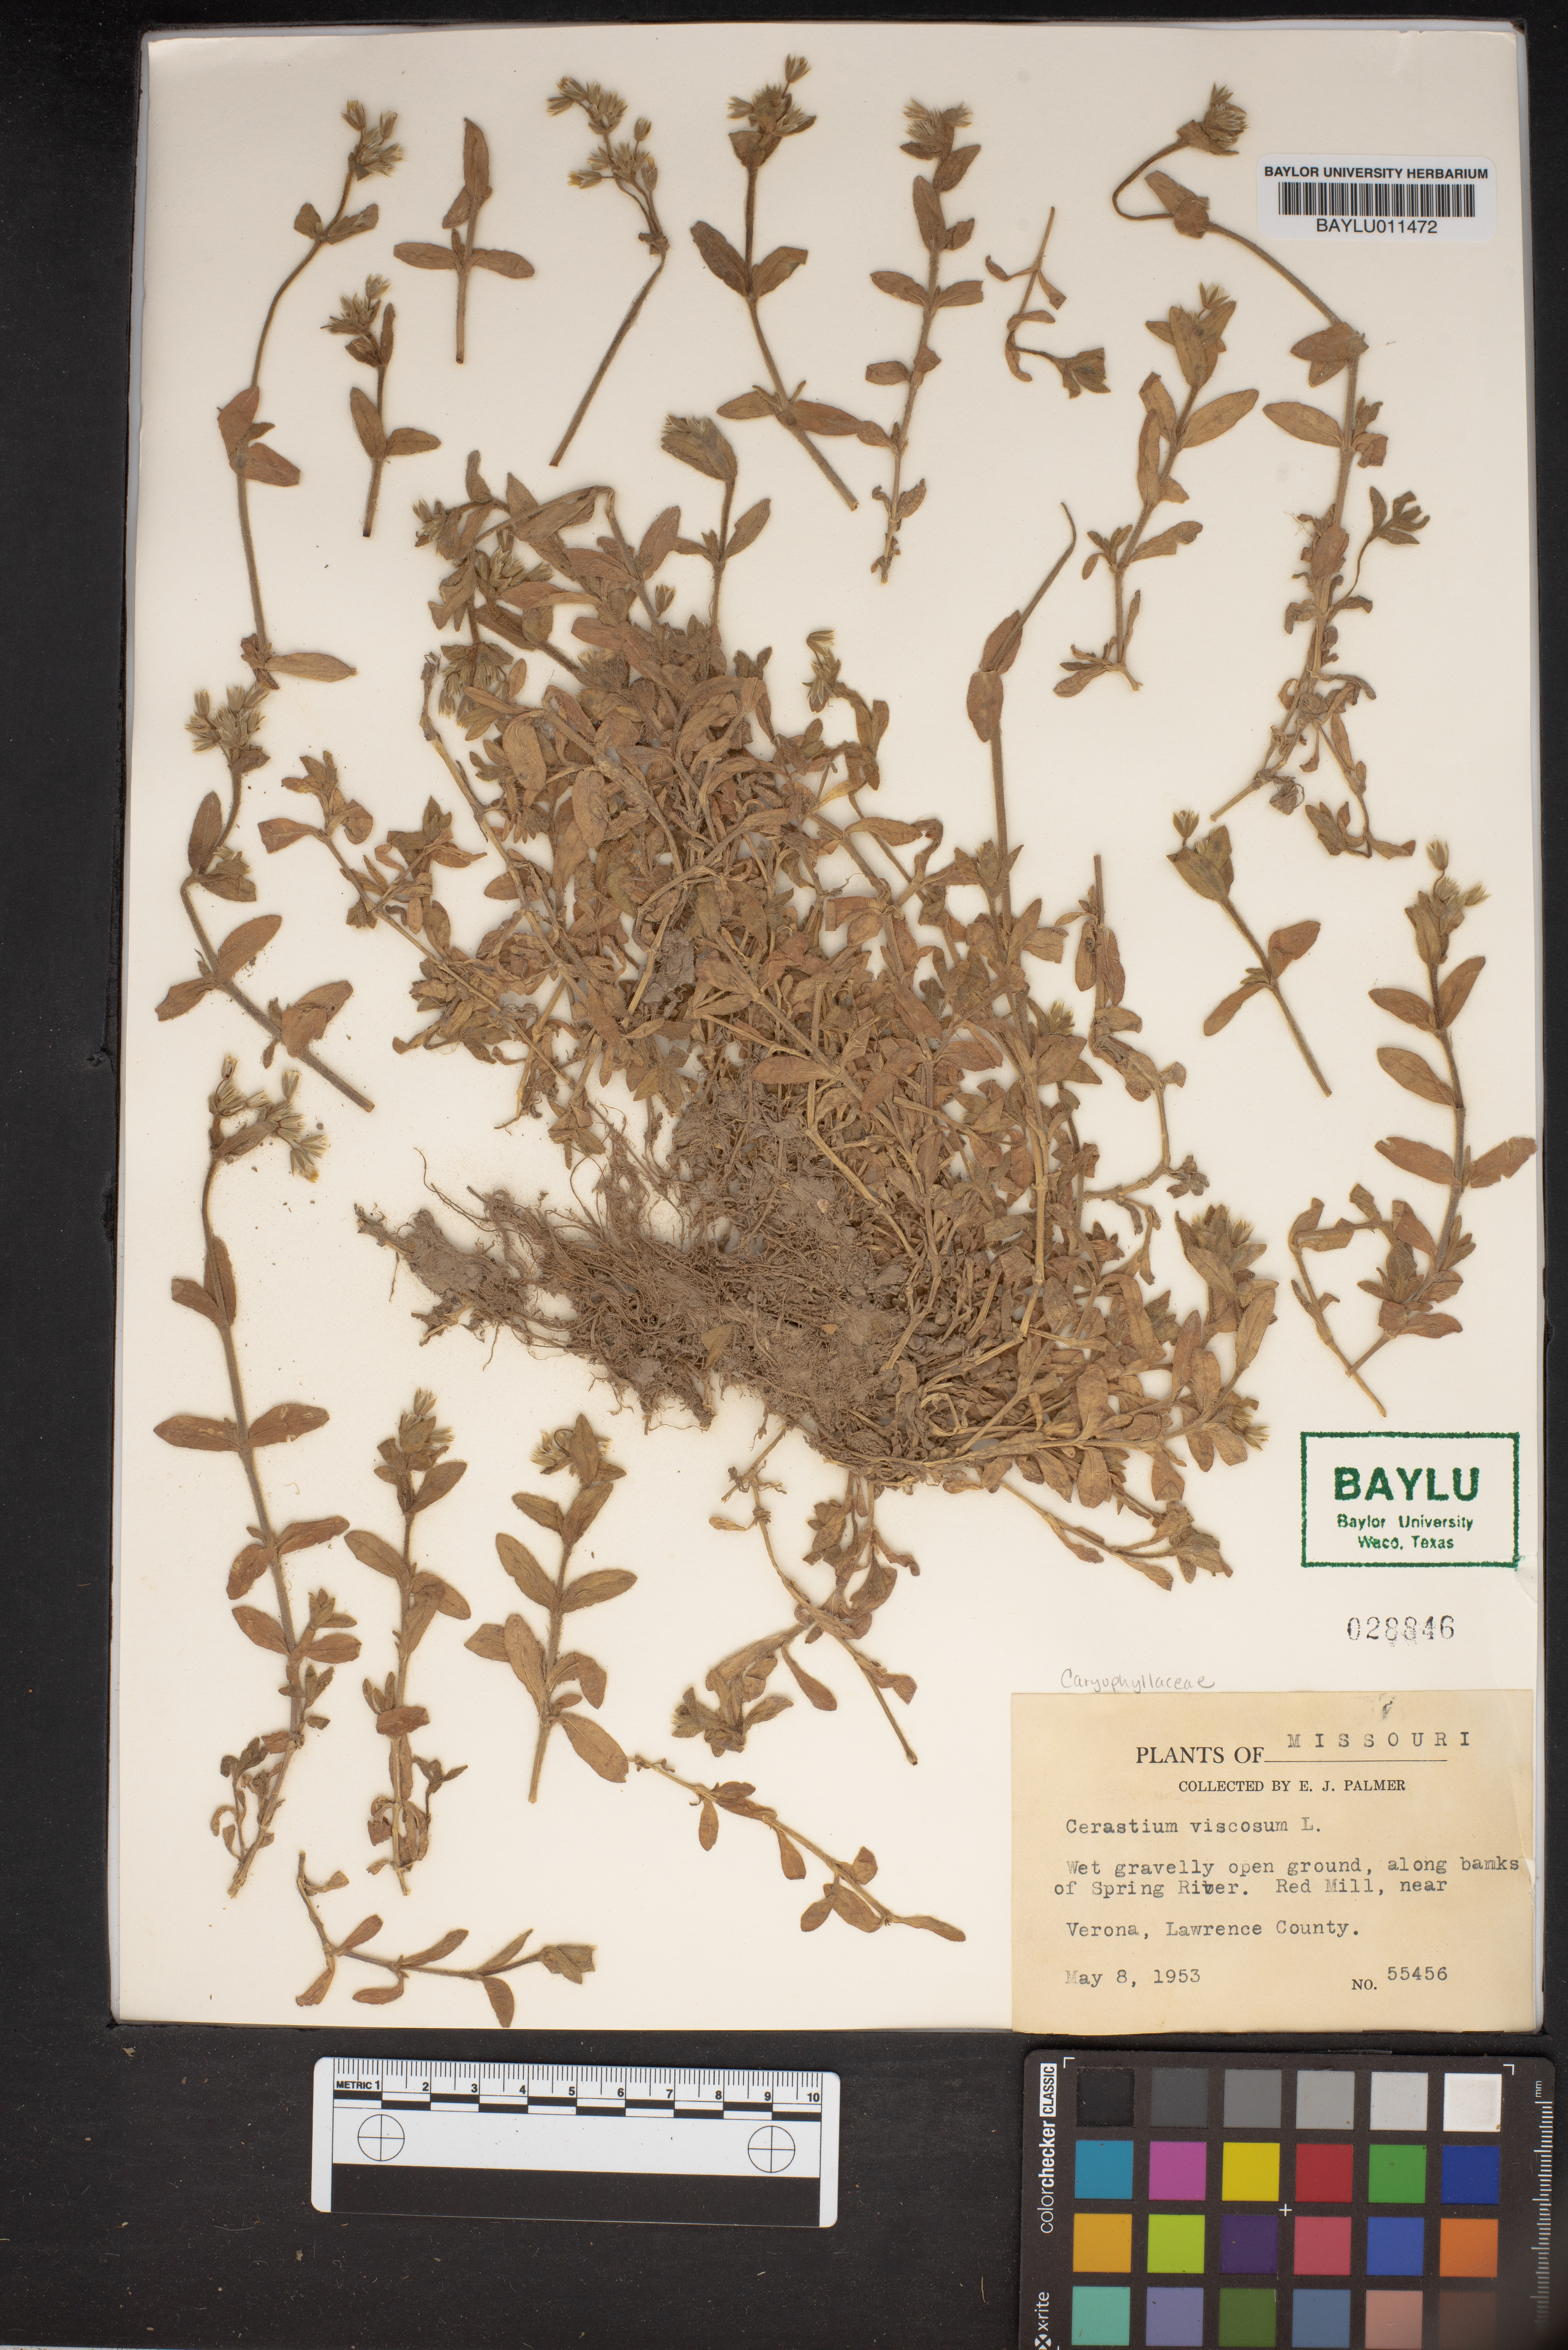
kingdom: Plantae
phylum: Tracheophyta
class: Magnoliopsida
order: Caryophyllales
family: Caryophyllaceae
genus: Cerastium
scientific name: Cerastium holosteoides
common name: Big chickweed
